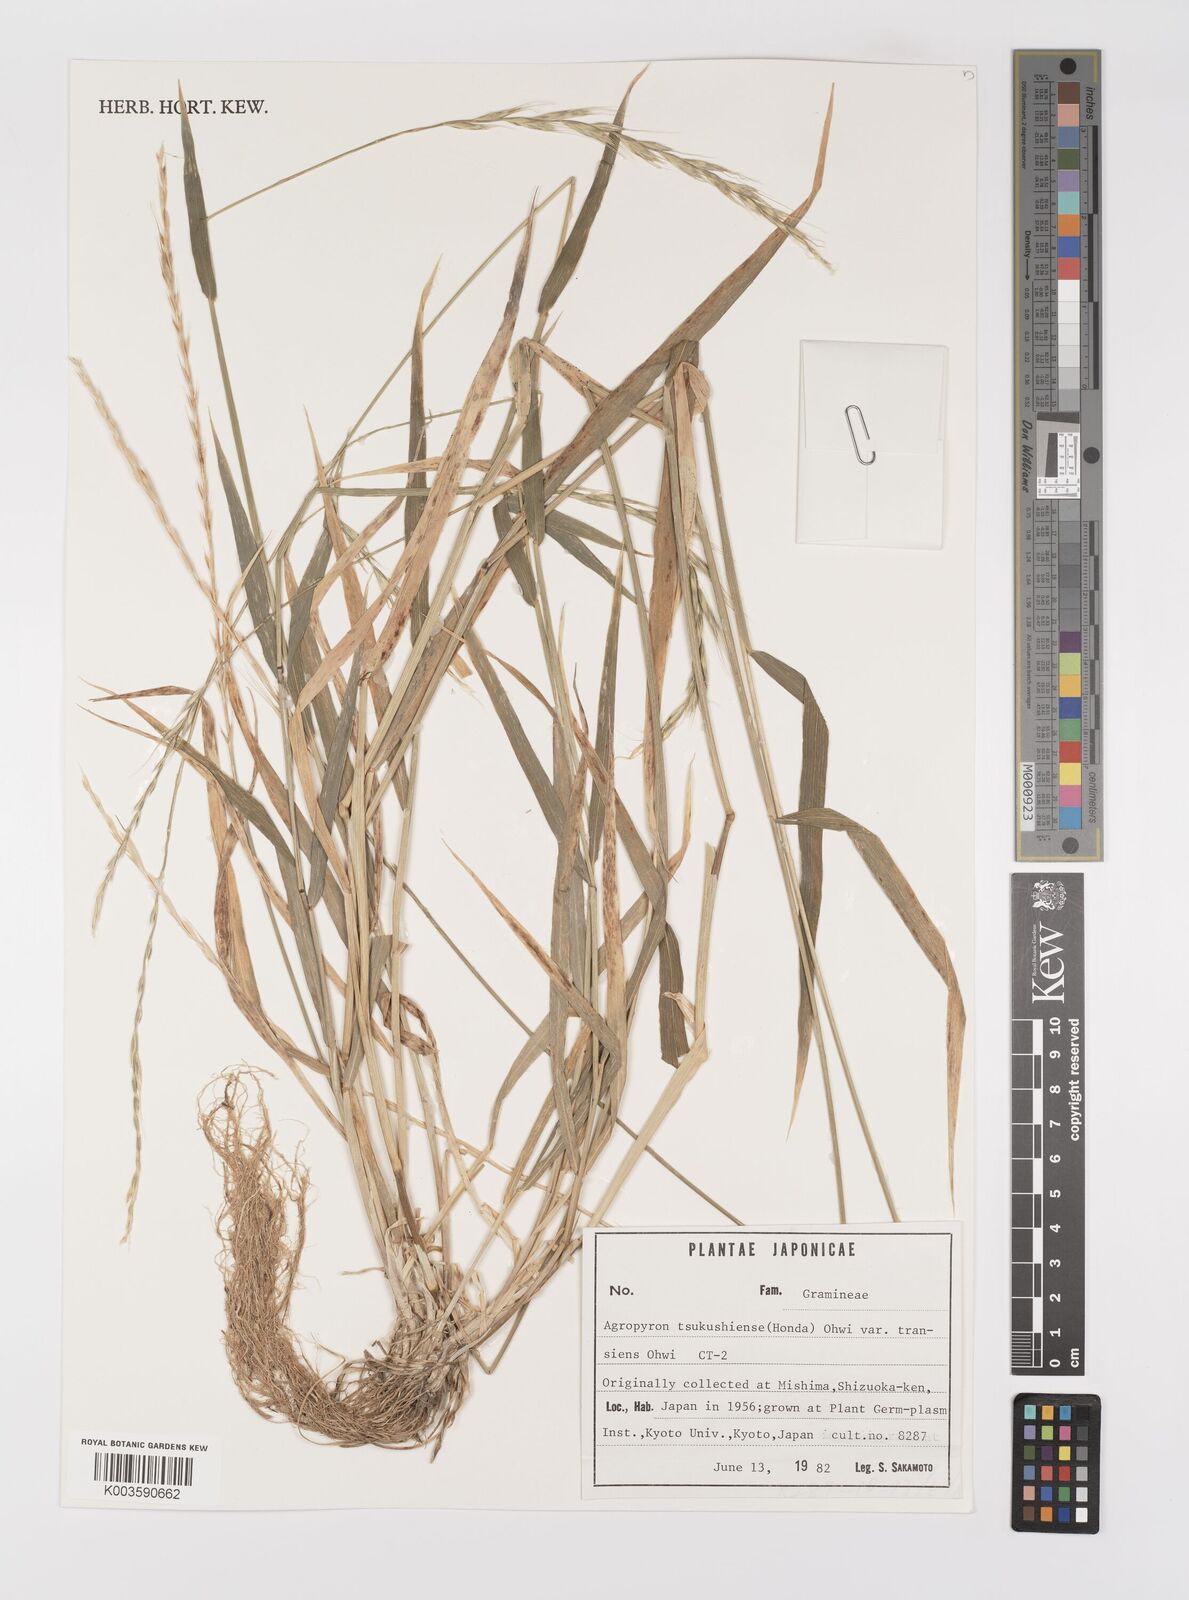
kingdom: Plantae
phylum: Tracheophyta
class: Liliopsida
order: Poales
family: Poaceae
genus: Elymus
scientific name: Elymus tsukushiensis
